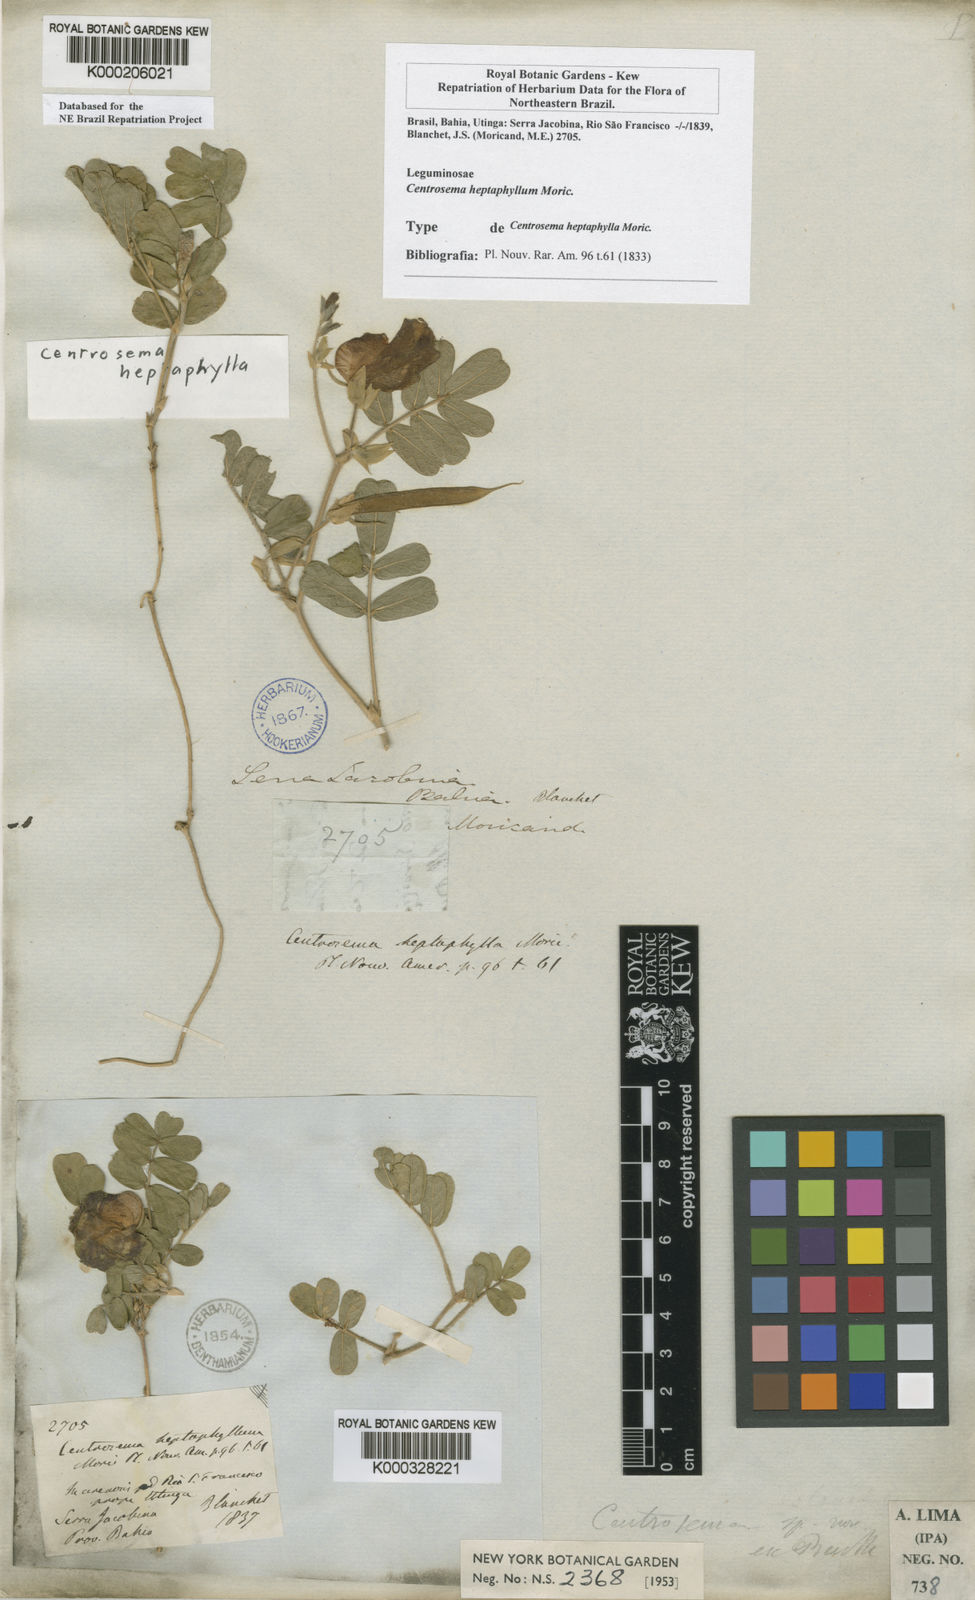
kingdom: Plantae
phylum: Tracheophyta
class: Magnoliopsida
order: Fabales
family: Fabaceae
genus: Centrosema
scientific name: Centrosema heptaphyllum
